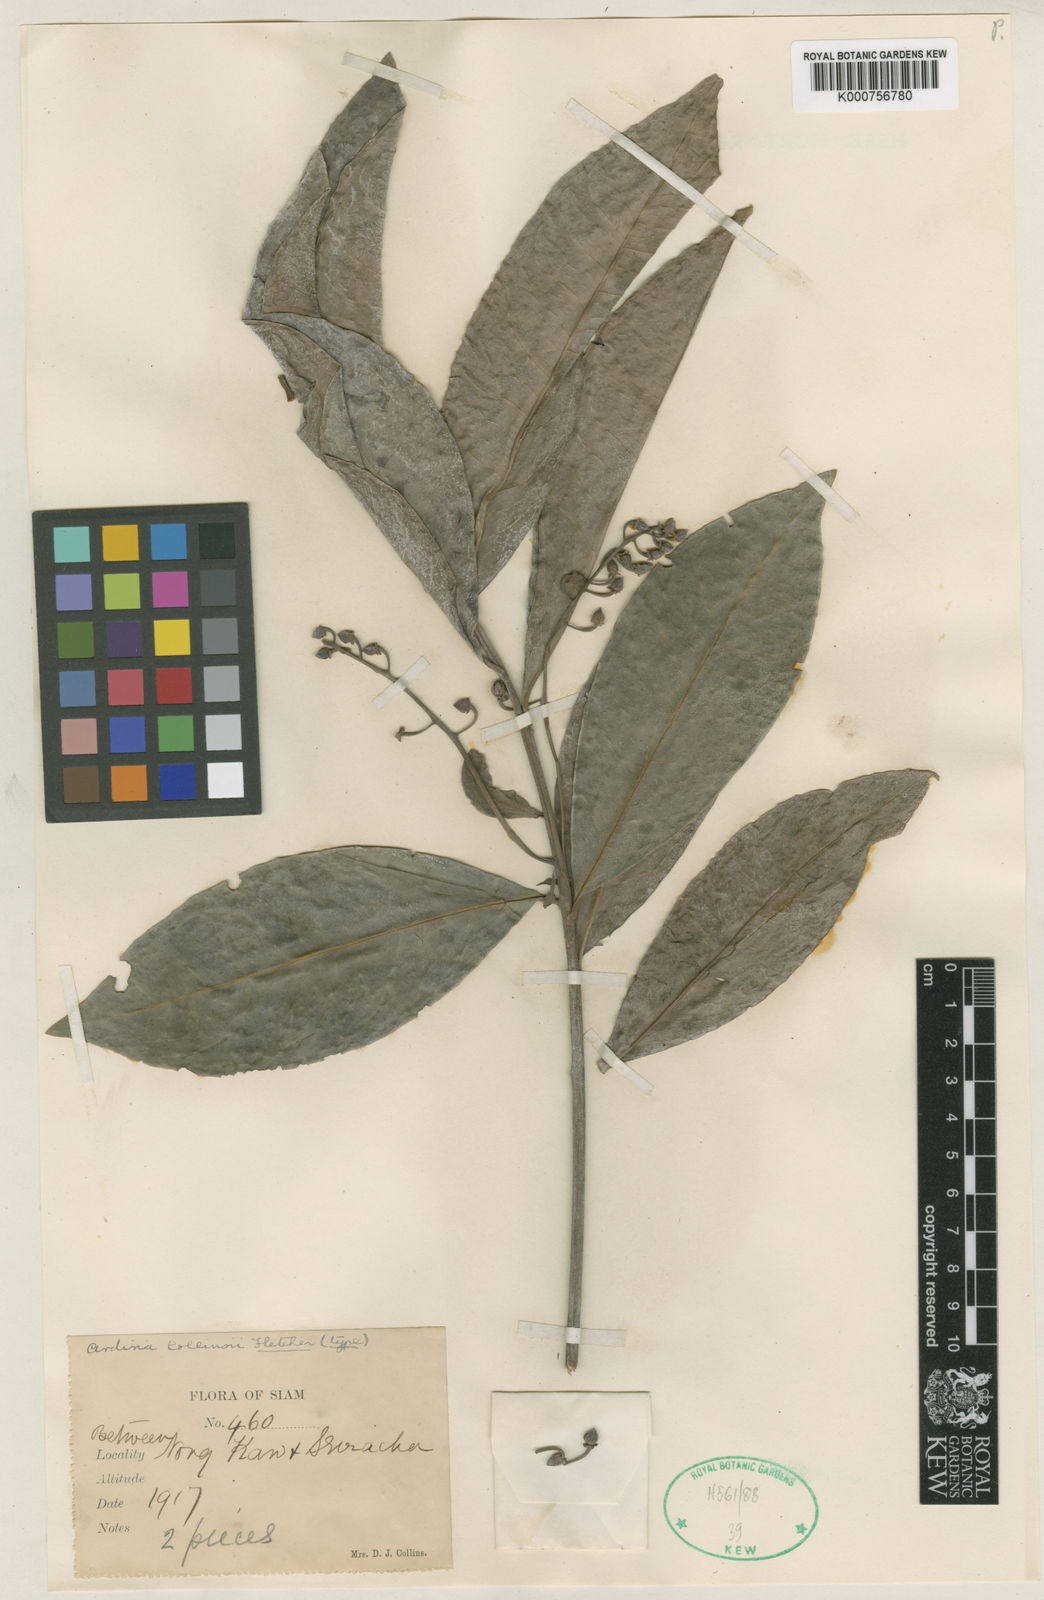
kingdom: Plantae
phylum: Tracheophyta
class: Magnoliopsida
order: Ericales
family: Primulaceae
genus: Ardisia
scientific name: Ardisia pubicalyx
